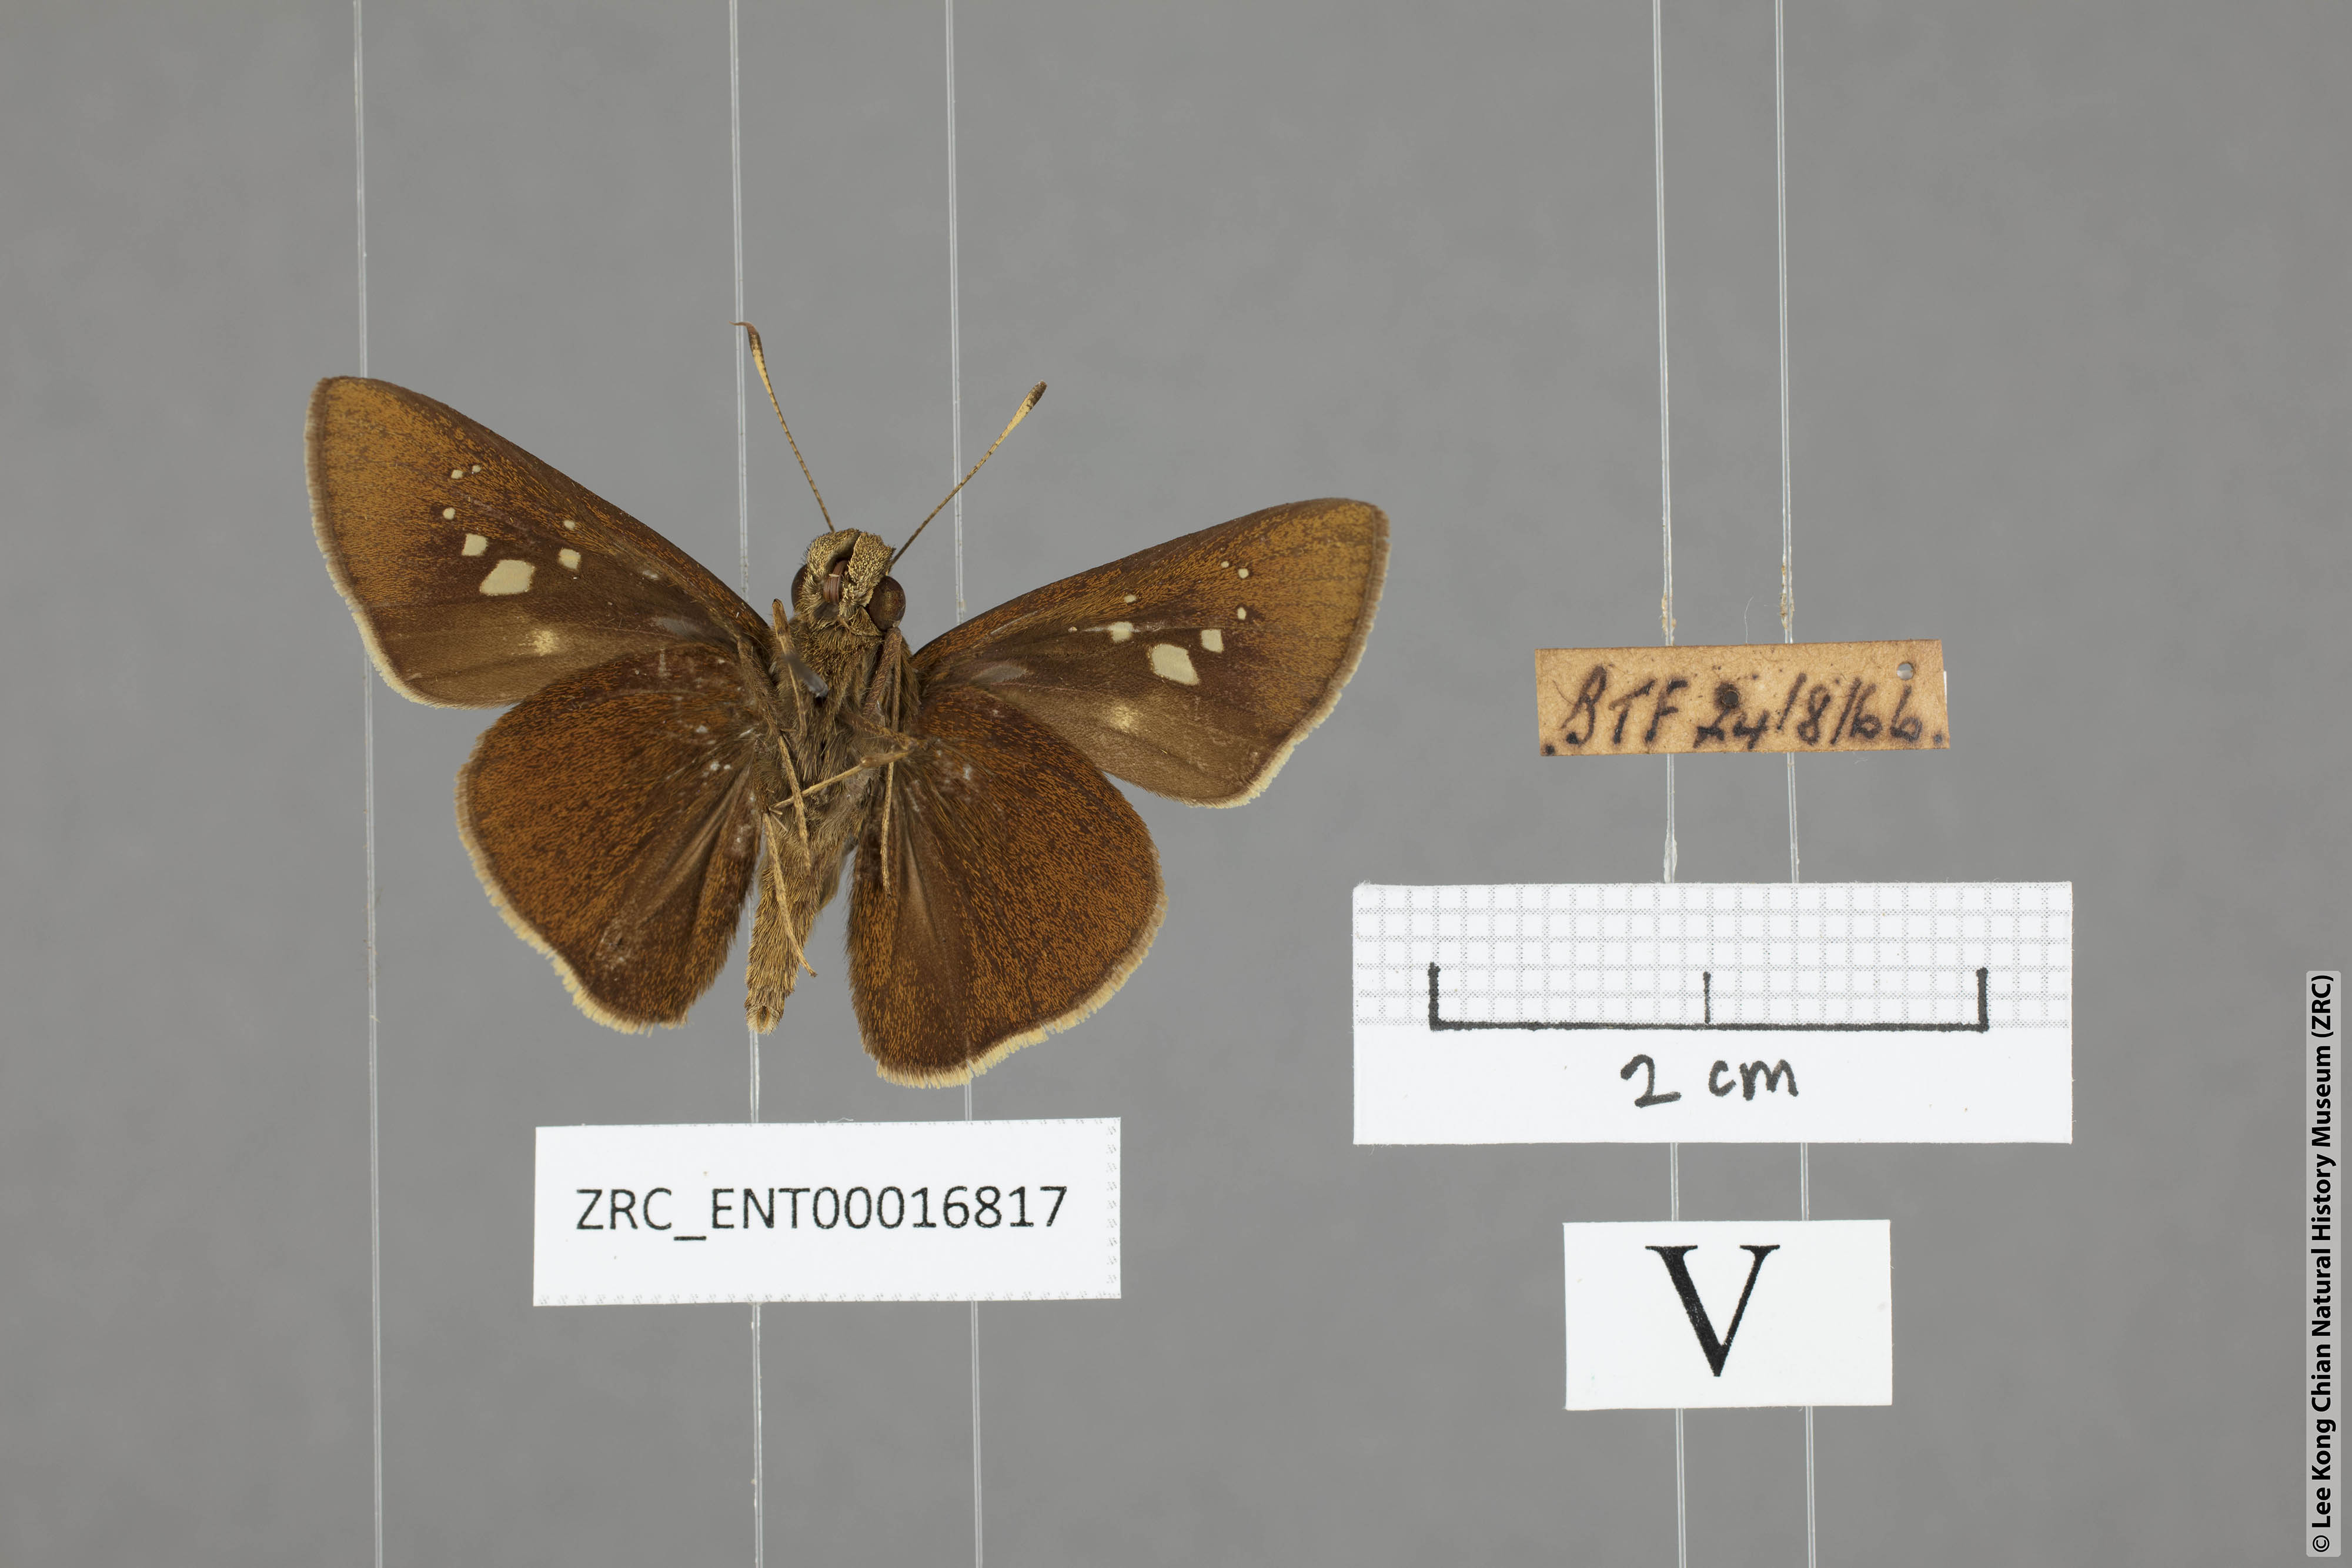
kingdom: Animalia
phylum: Arthropoda
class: Insecta
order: Lepidoptera
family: Hesperiidae
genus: Caltoris
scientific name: Caltoris cormasa
